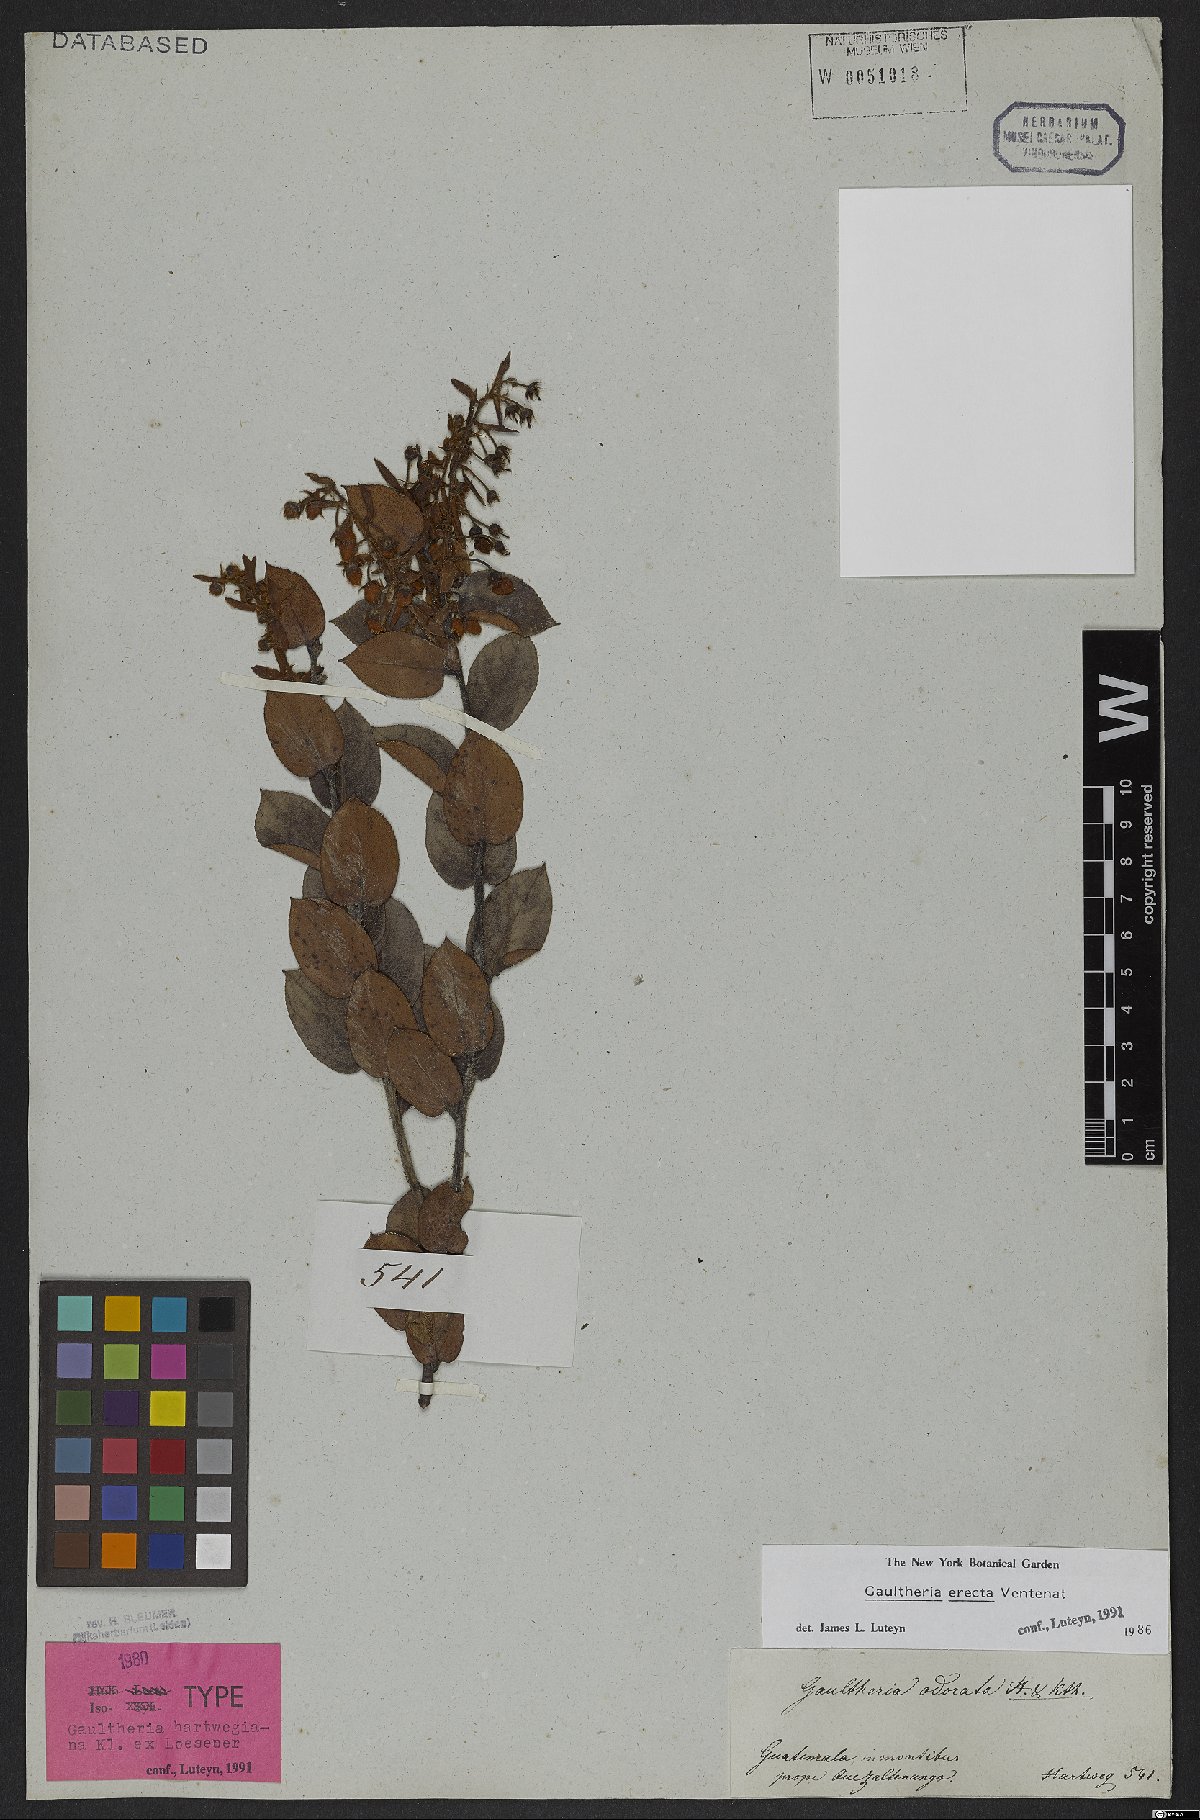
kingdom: Plantae
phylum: Tracheophyta
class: Magnoliopsida
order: Ericales
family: Ericaceae
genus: Gaultheria
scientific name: Gaultheria erecta
